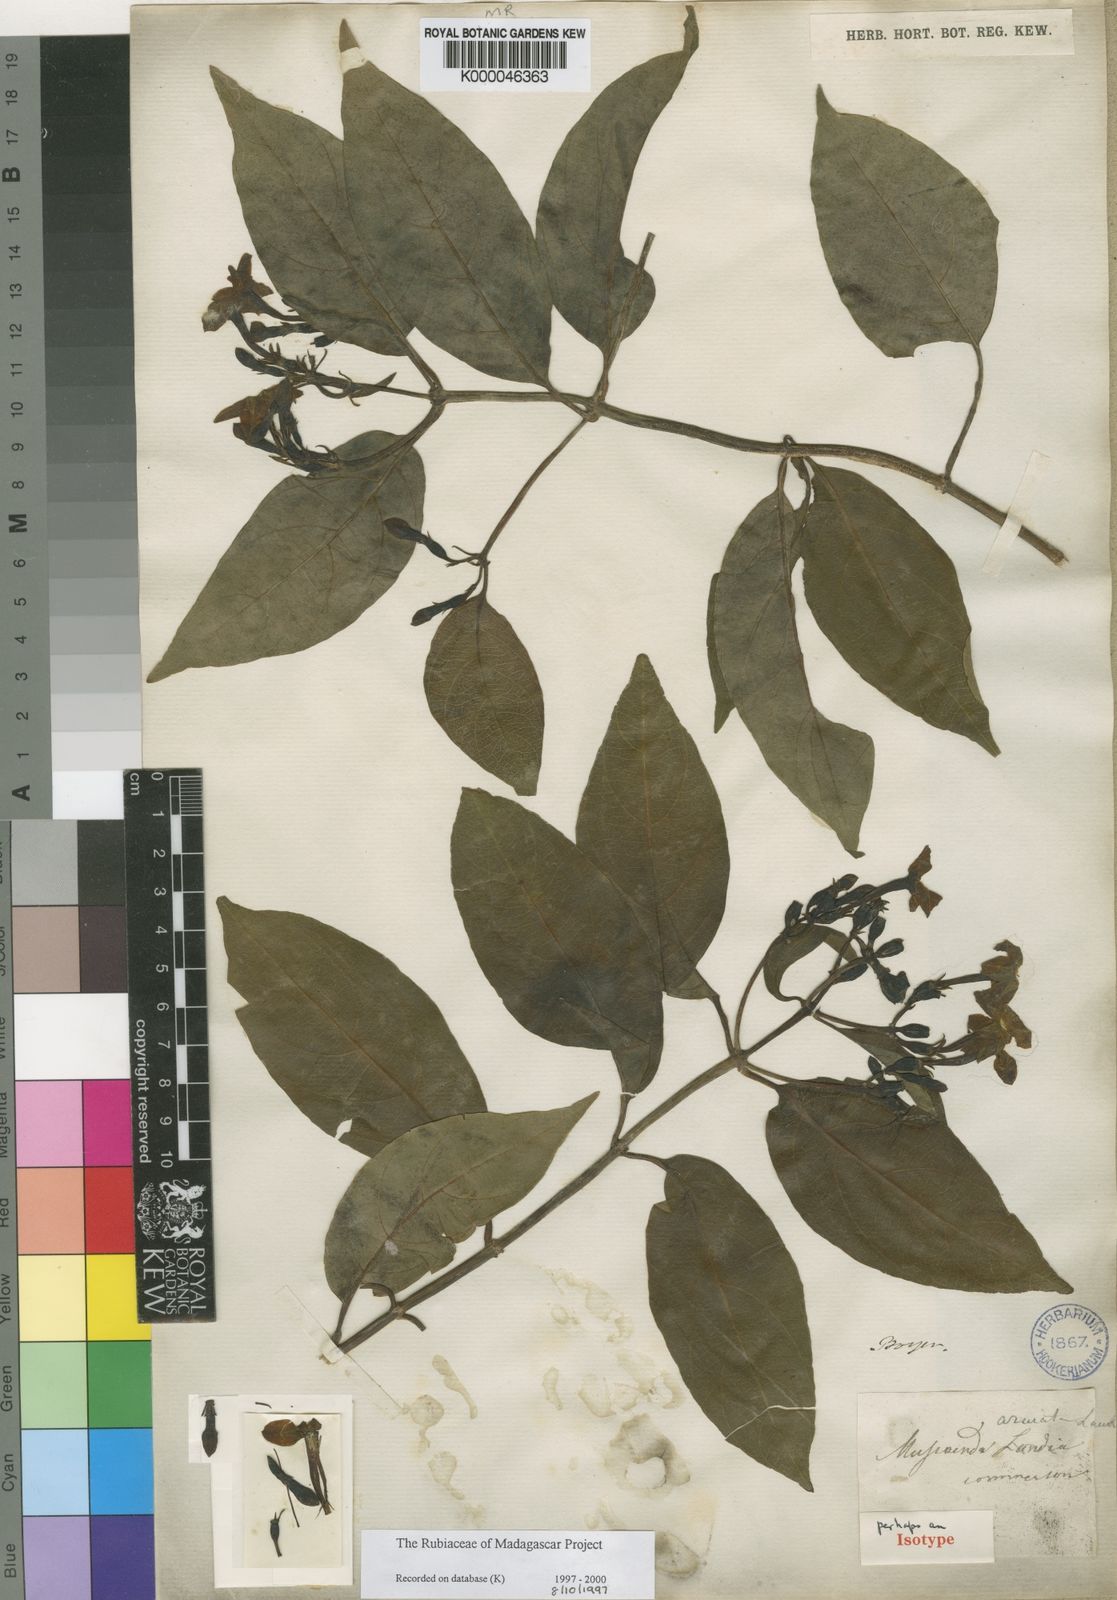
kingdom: Plantae
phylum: Tracheophyta
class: Magnoliopsida
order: Gentianales
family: Rubiaceae
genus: Mussaenda
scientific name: Mussaenda arcuata
